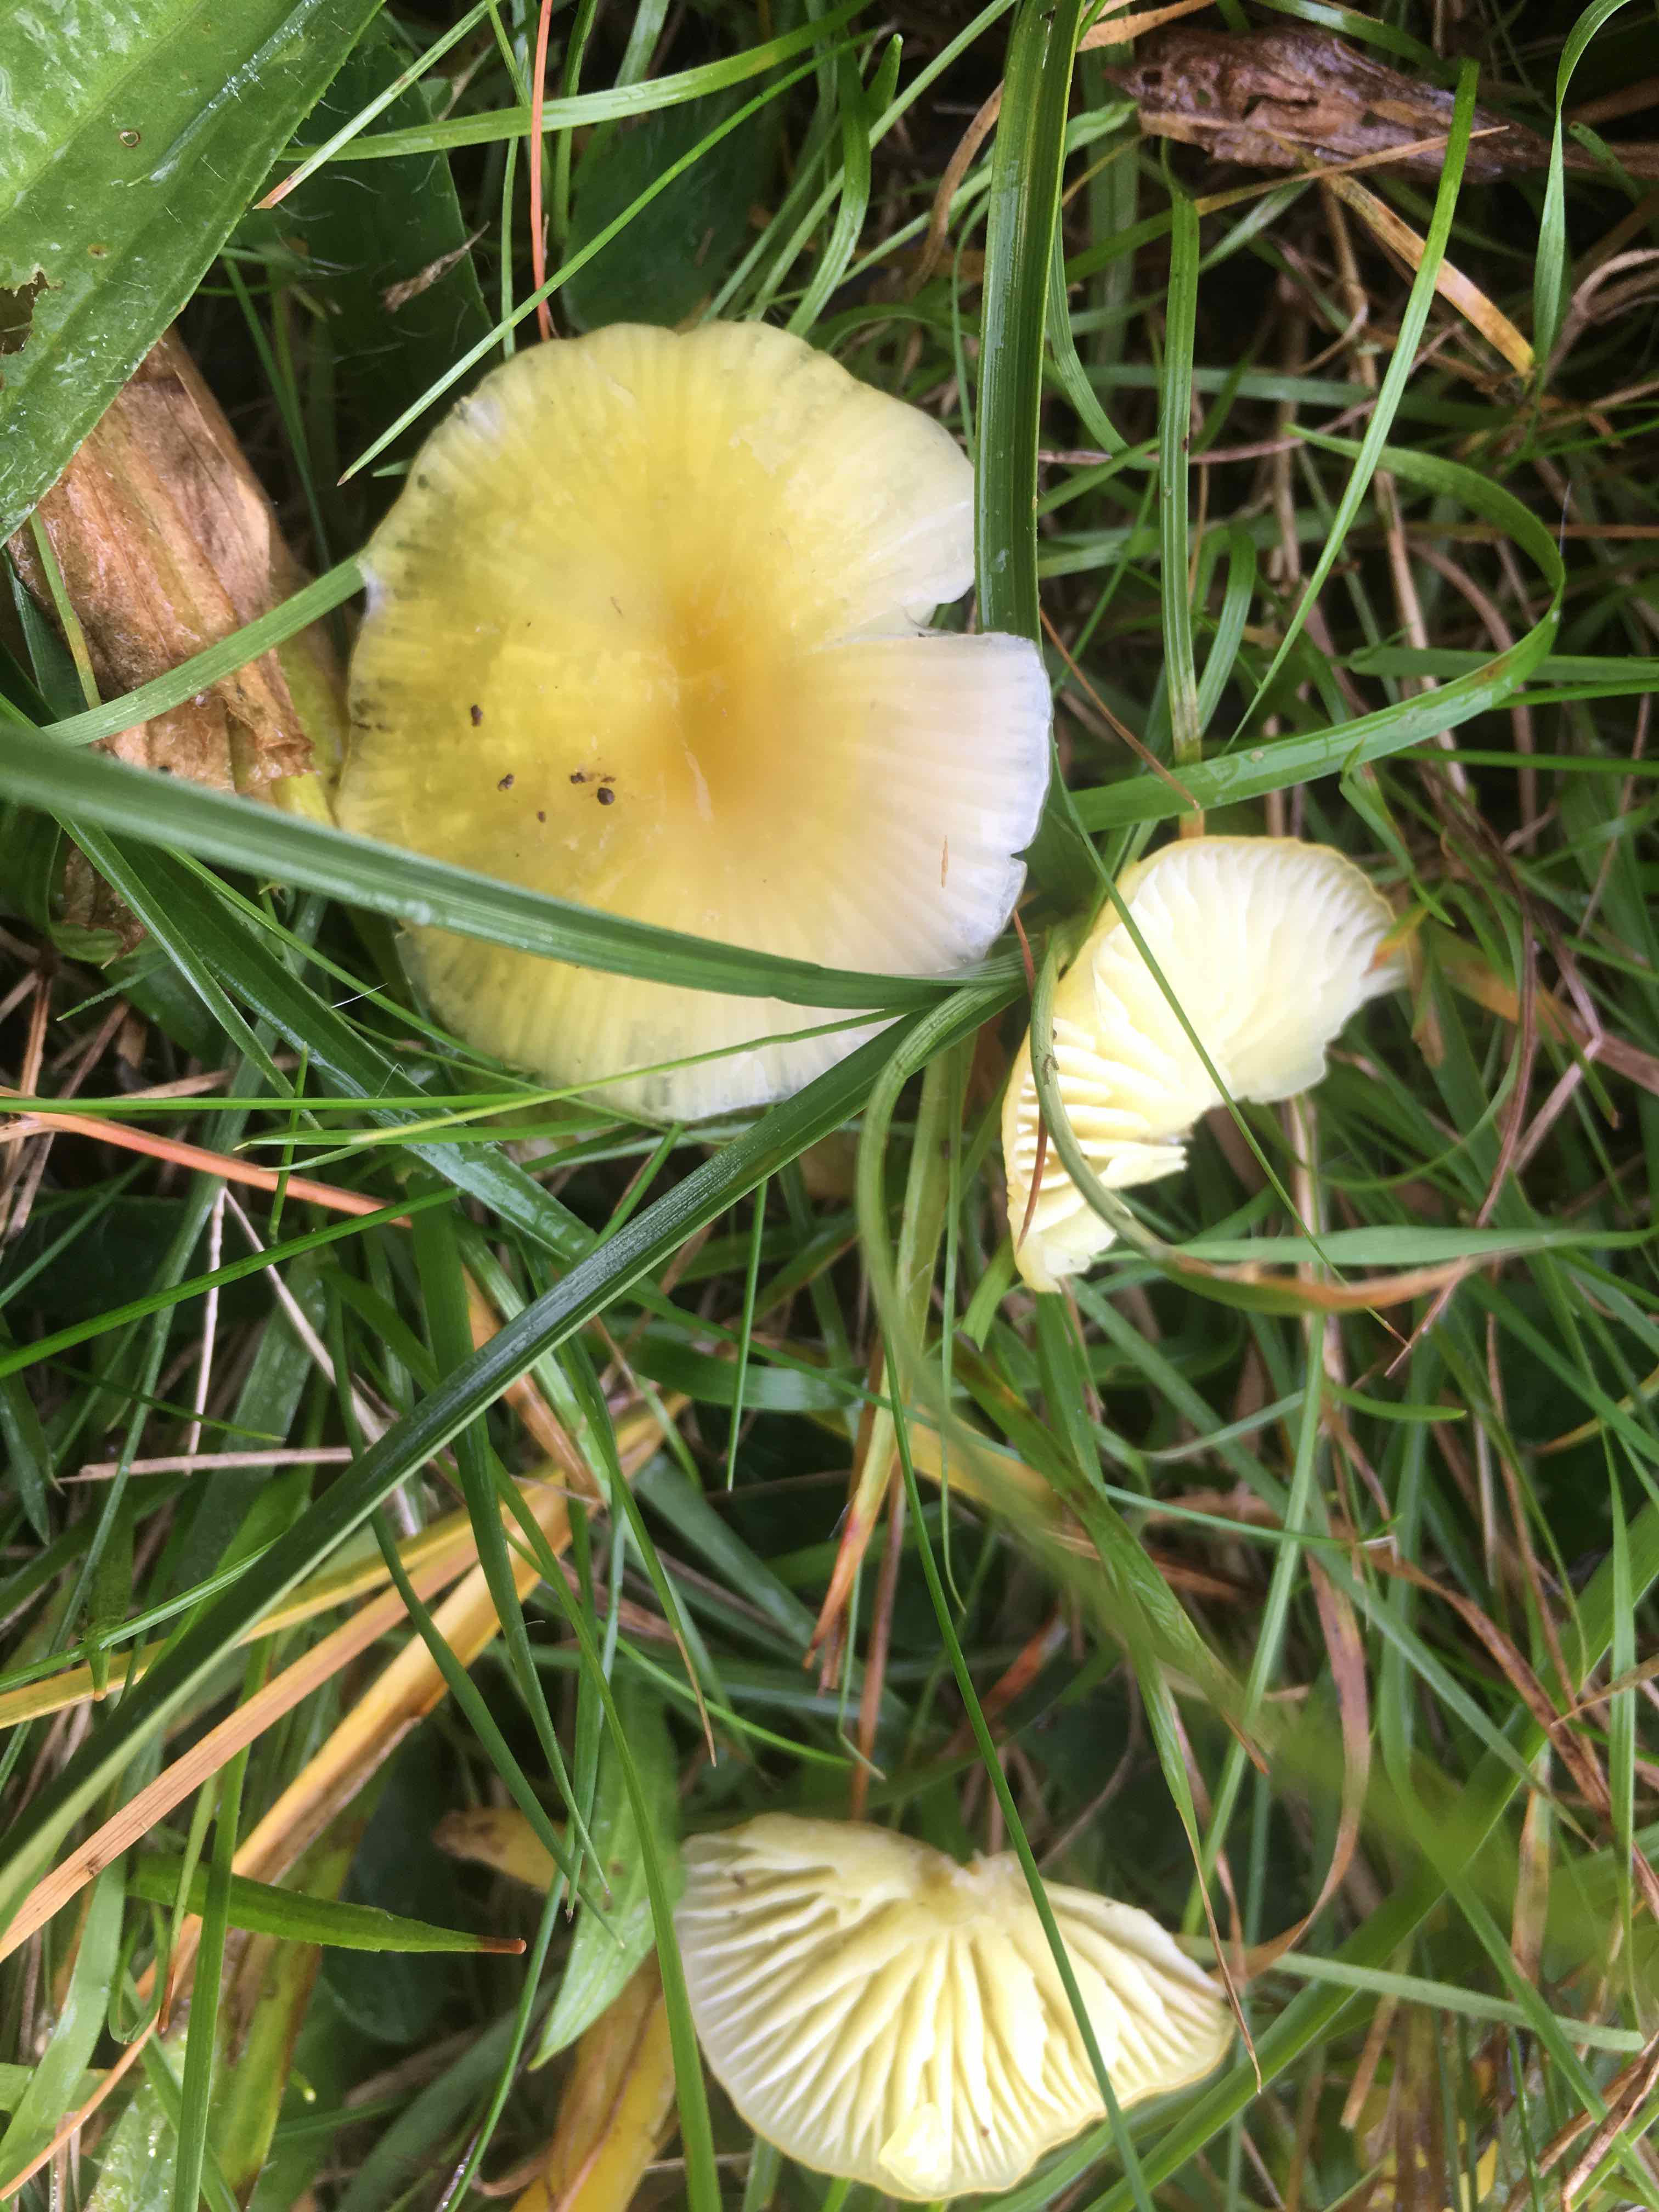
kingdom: Fungi
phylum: Basidiomycota
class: Agaricomycetes
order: Agaricales
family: Hygrophoraceae
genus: Hygrocybe
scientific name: Hygrocybe chlorophana
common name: gul vokshat
